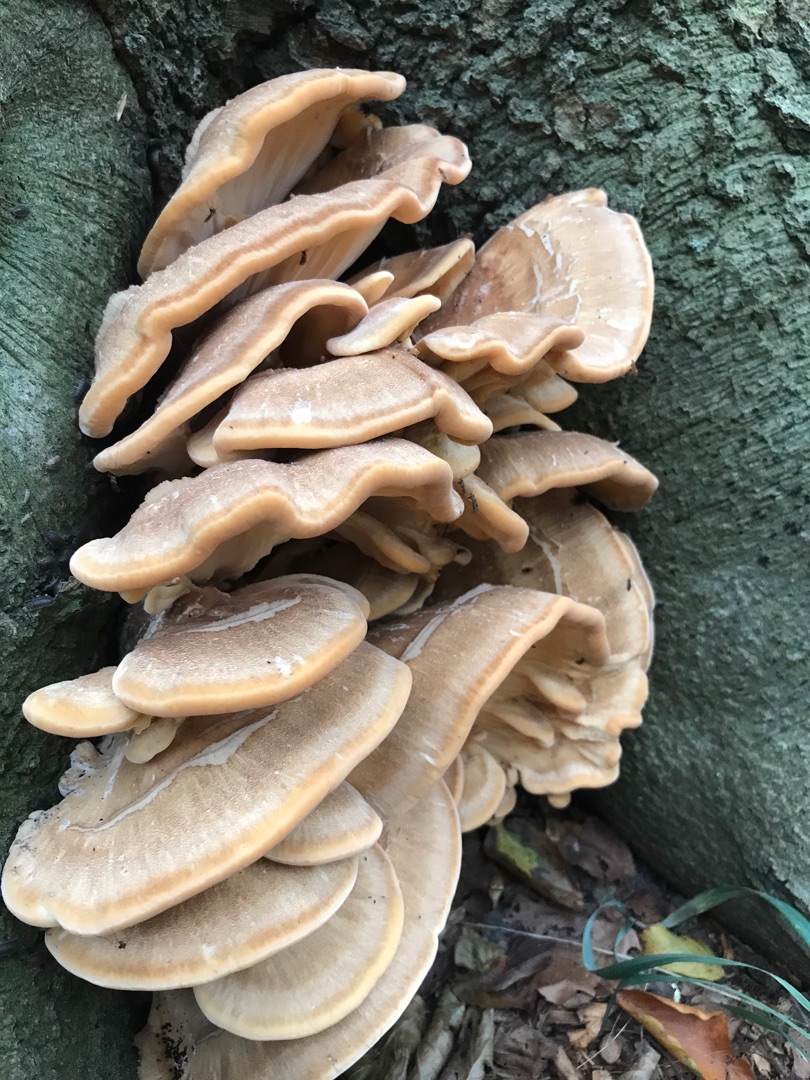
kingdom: Fungi
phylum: Basidiomycota
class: Agaricomycetes
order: Polyporales
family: Meripilaceae
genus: Meripilus
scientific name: Meripilus giganteus
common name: Kæmpeporesvamp
